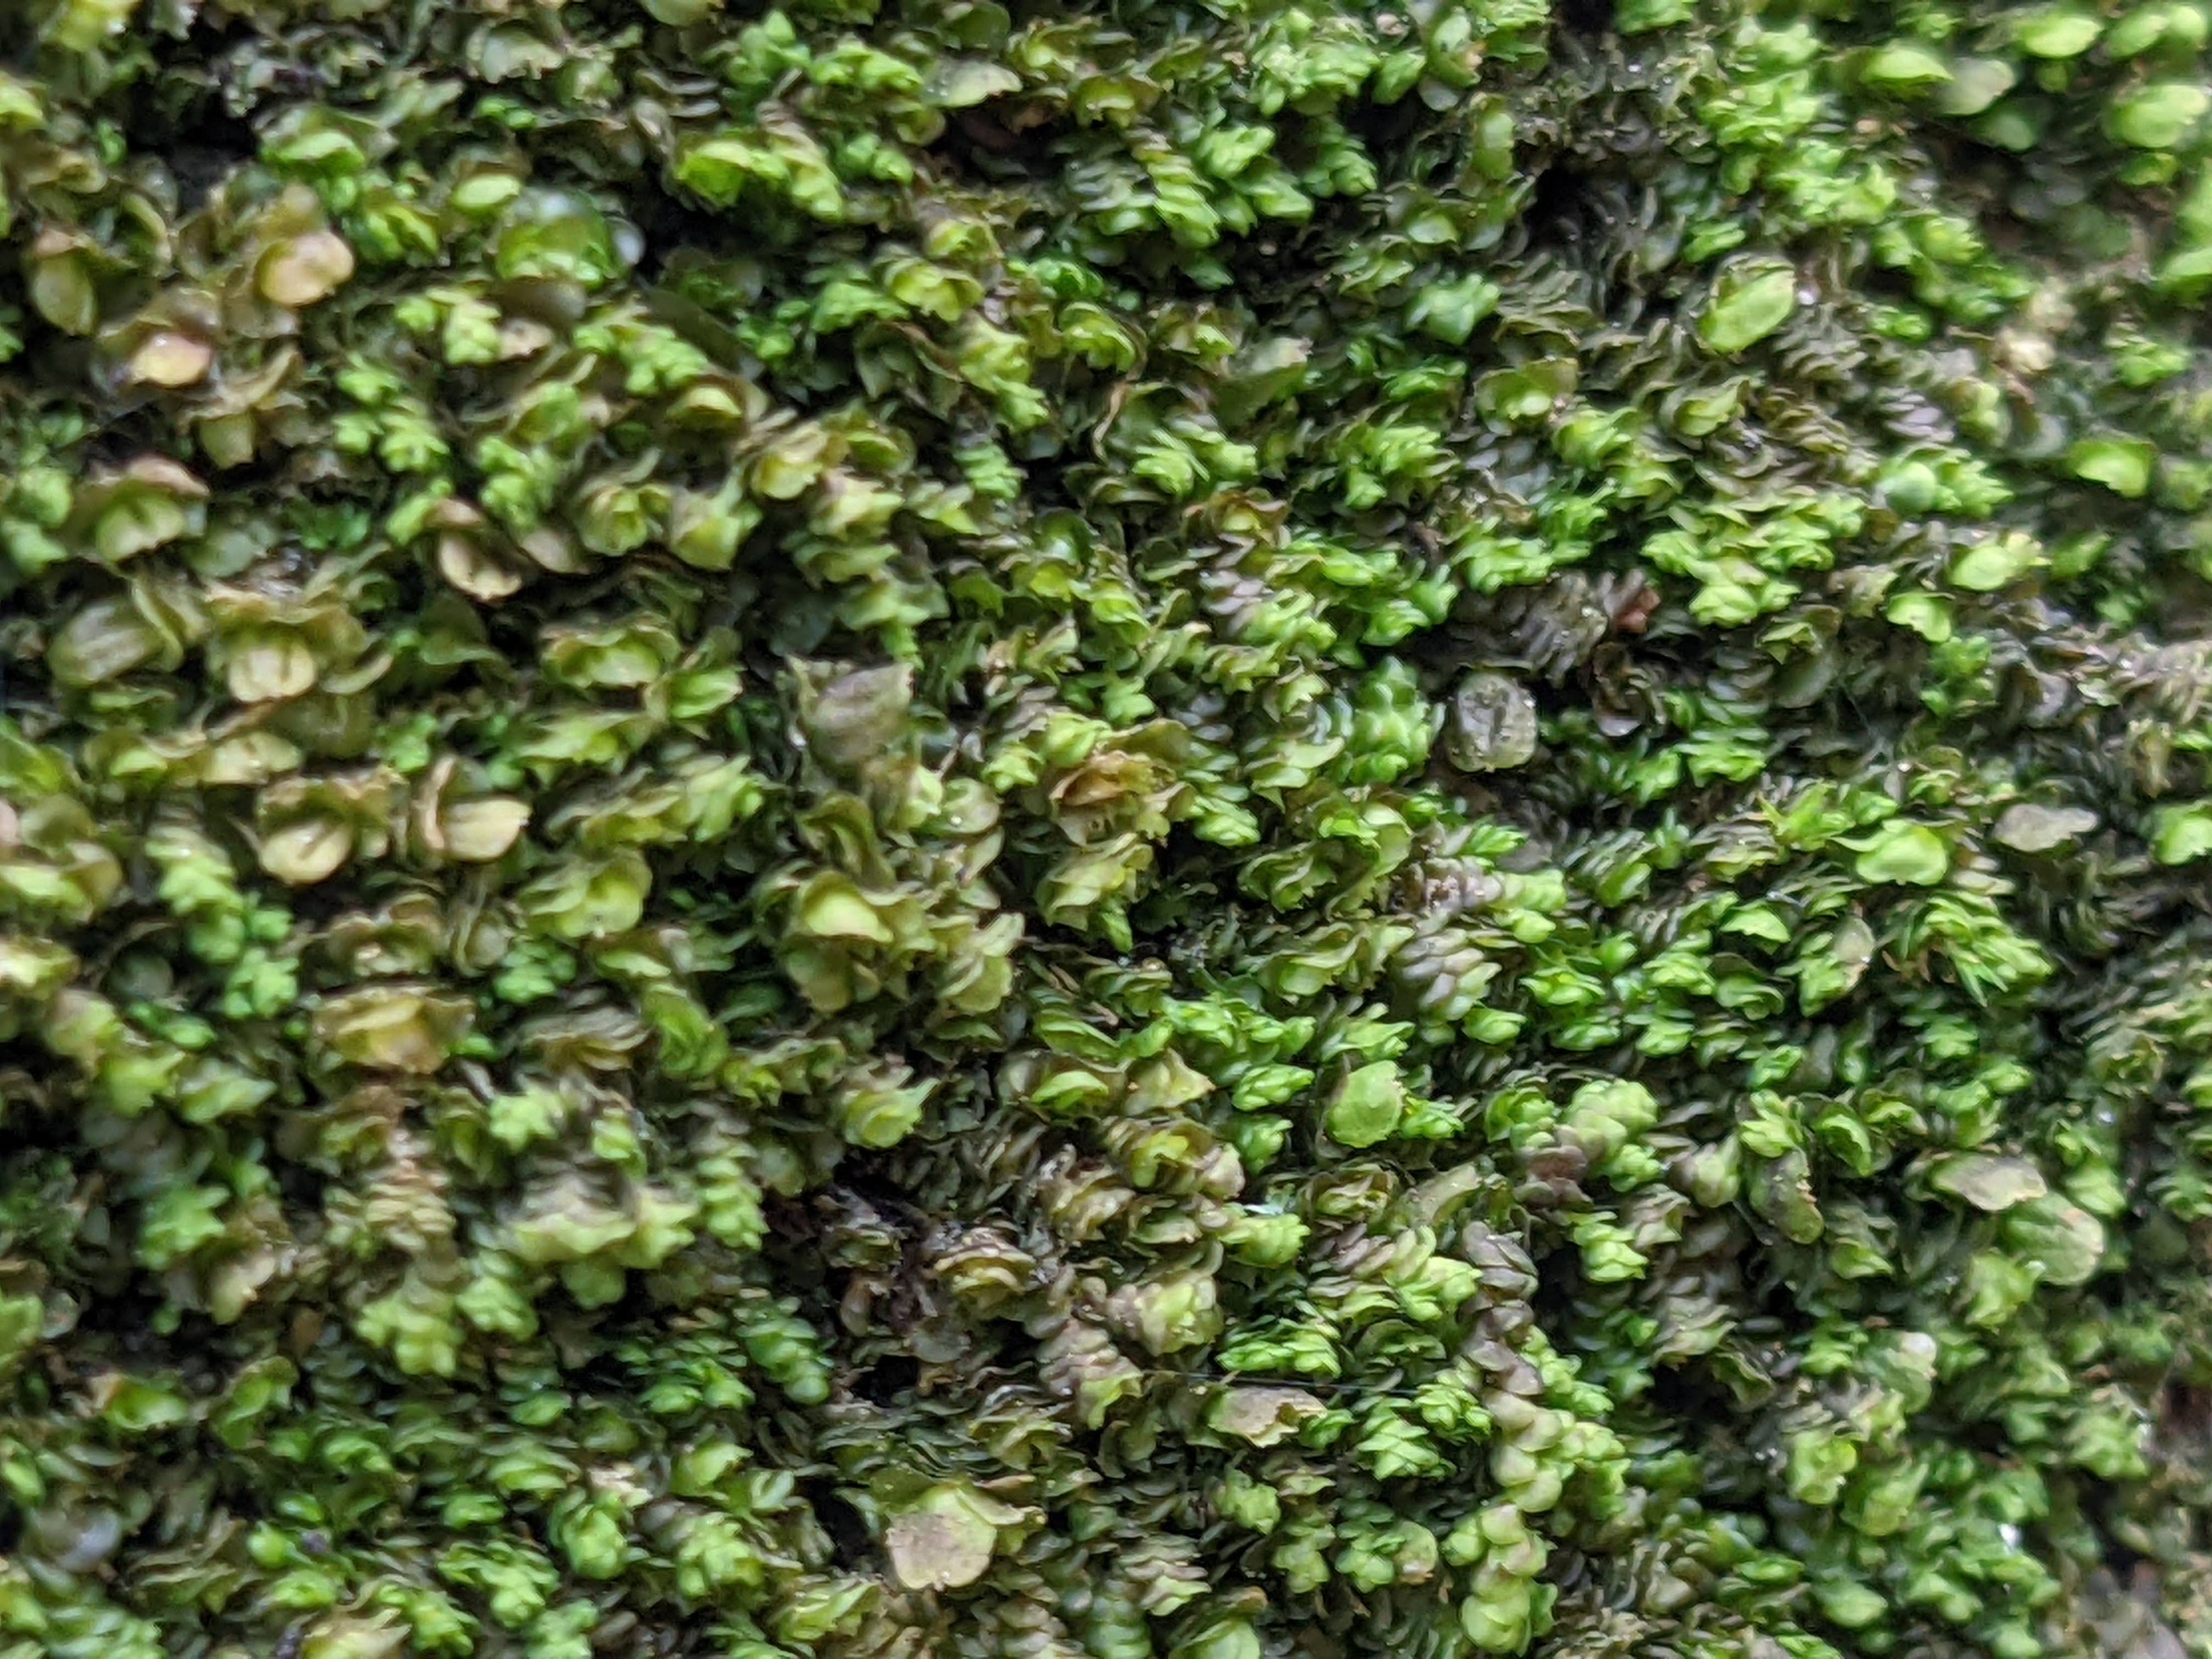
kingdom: Plantae
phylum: Marchantiophyta
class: Jungermanniopsida
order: Porellales
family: Frullaniaceae
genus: Frullania
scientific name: Frullania dilatata
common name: Mat bronzemos
